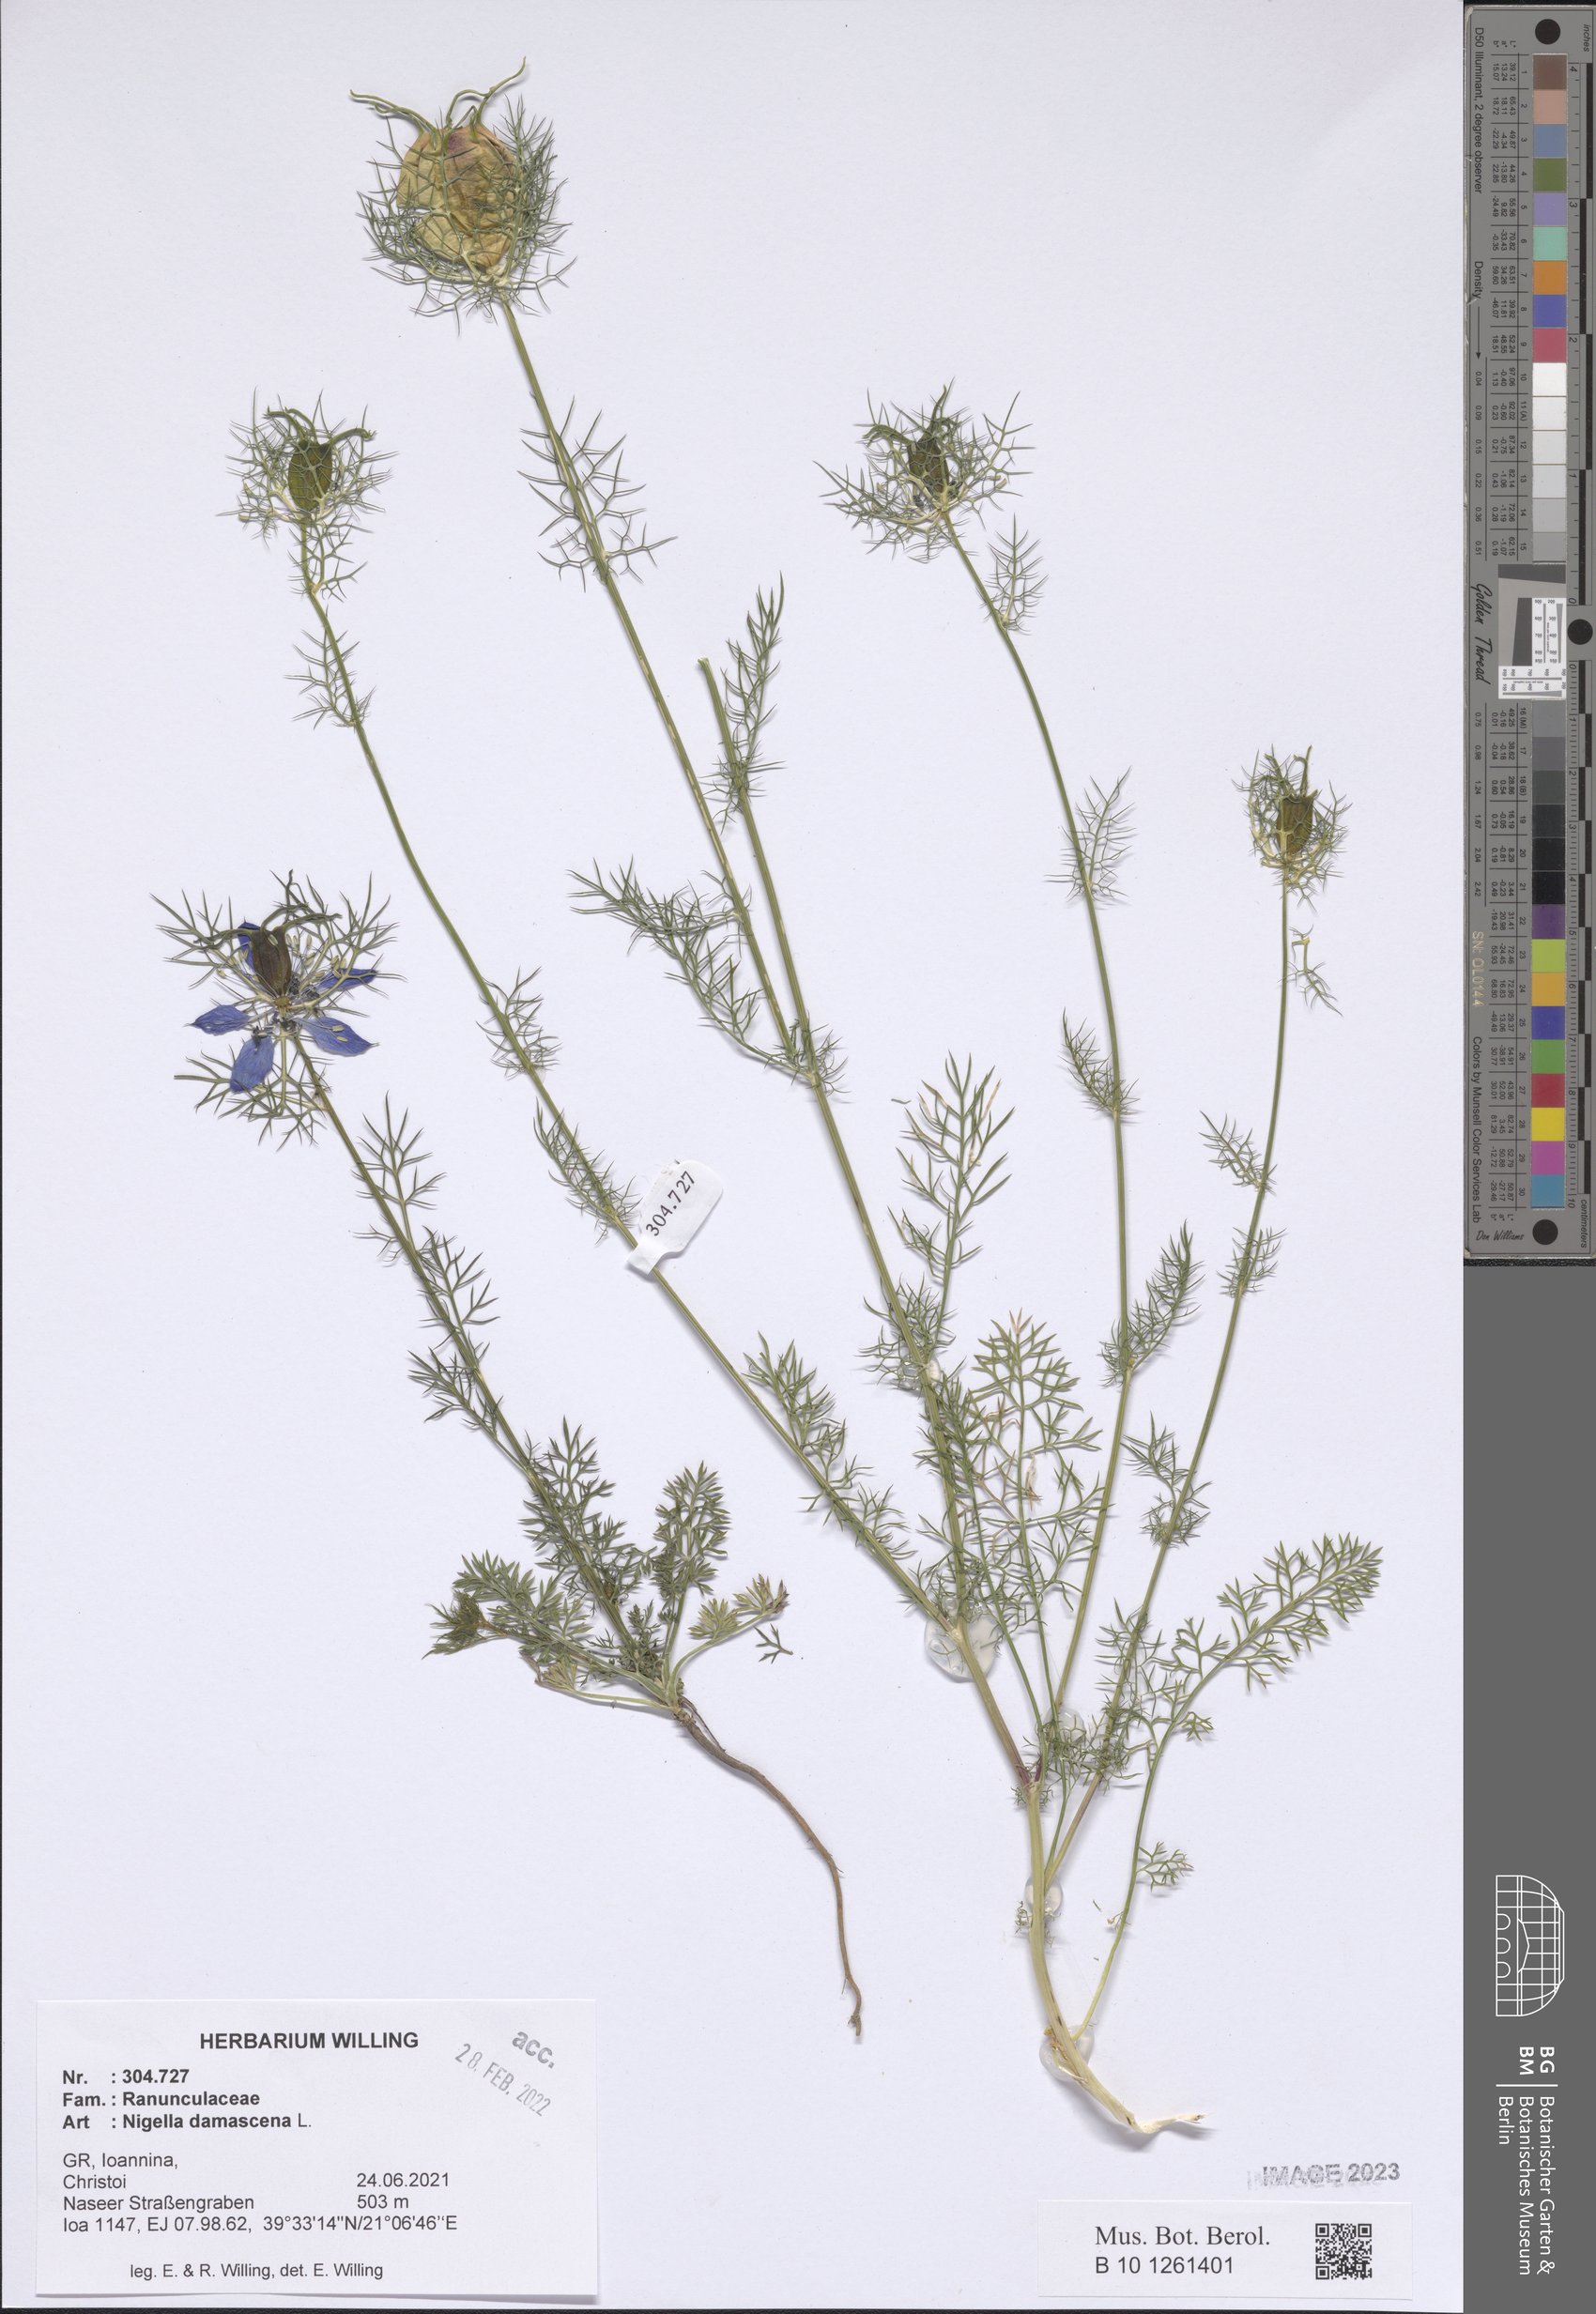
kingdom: Plantae
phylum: Tracheophyta
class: Magnoliopsida
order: Ranunculales
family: Ranunculaceae
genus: Nigella
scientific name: Nigella damascena
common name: Love-in-a-mist
